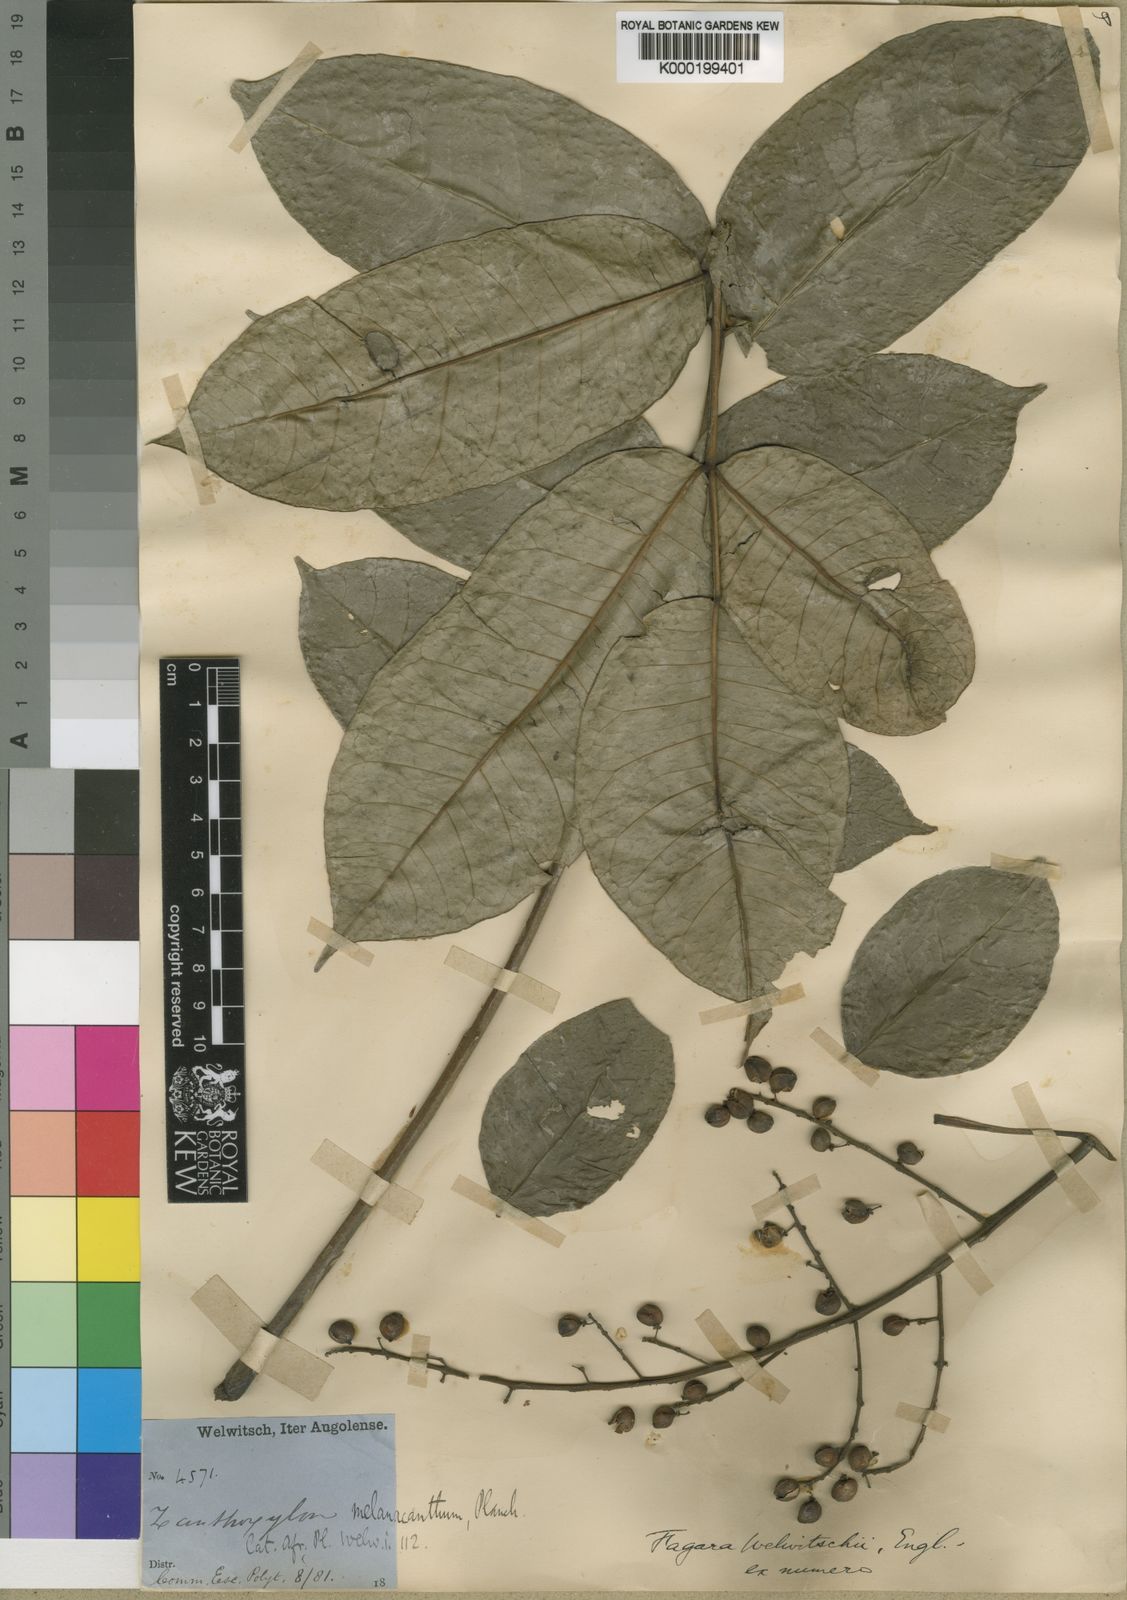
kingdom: Plantae
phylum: Tracheophyta
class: Magnoliopsida
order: Sapindales
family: Rutaceae
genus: Vepris
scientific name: Vepris grandifolia
